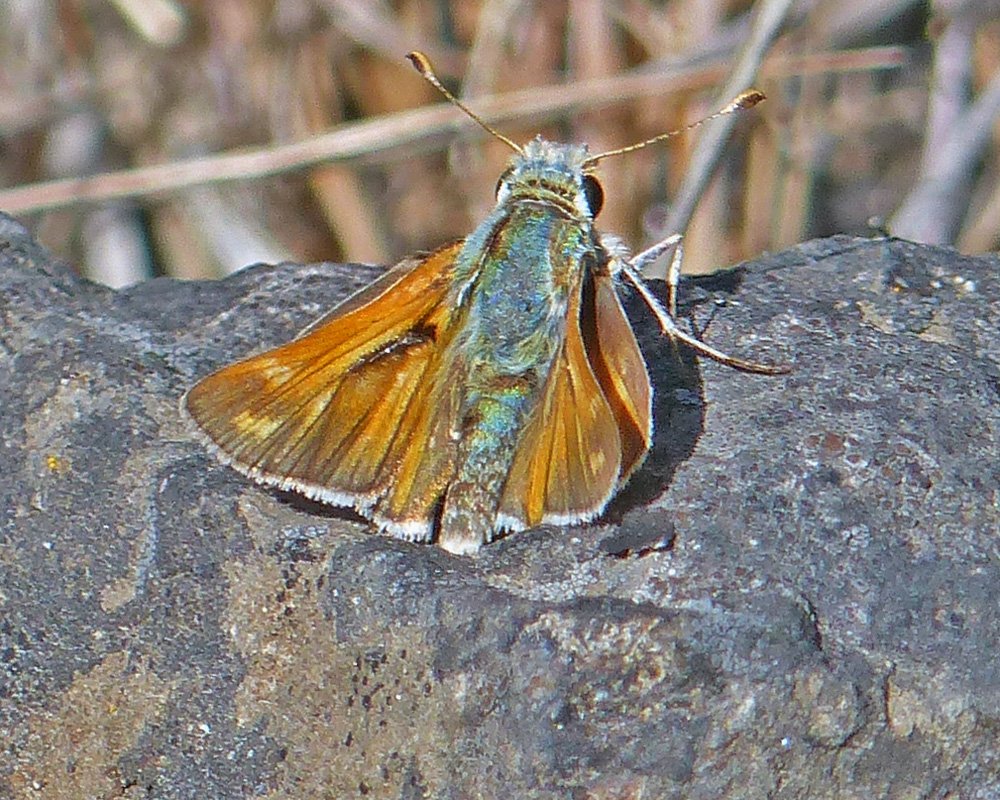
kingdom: Animalia
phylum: Arthropoda
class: Insecta
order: Lepidoptera
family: Hesperiidae
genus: Hesperia
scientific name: Hesperia comma
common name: Western Branded Skipper
